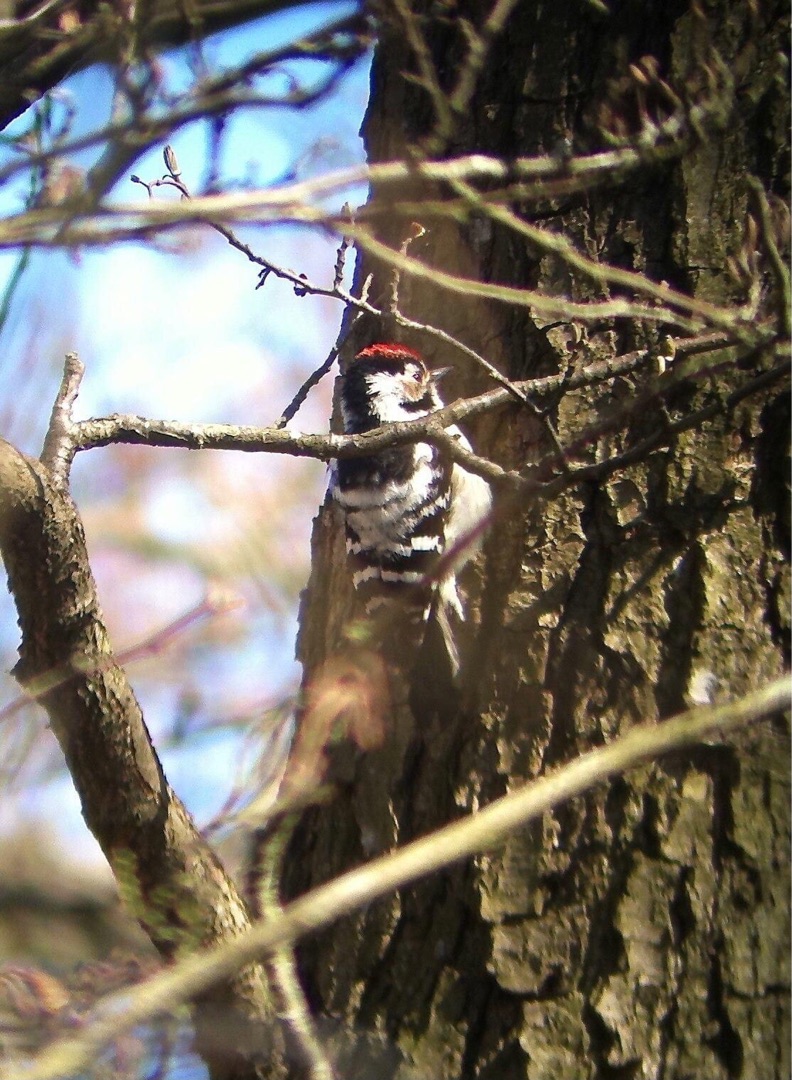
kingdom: Animalia
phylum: Chordata
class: Aves
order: Piciformes
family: Picidae
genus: Dryobates
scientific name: Dryobates minor
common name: Lille flagspætte
